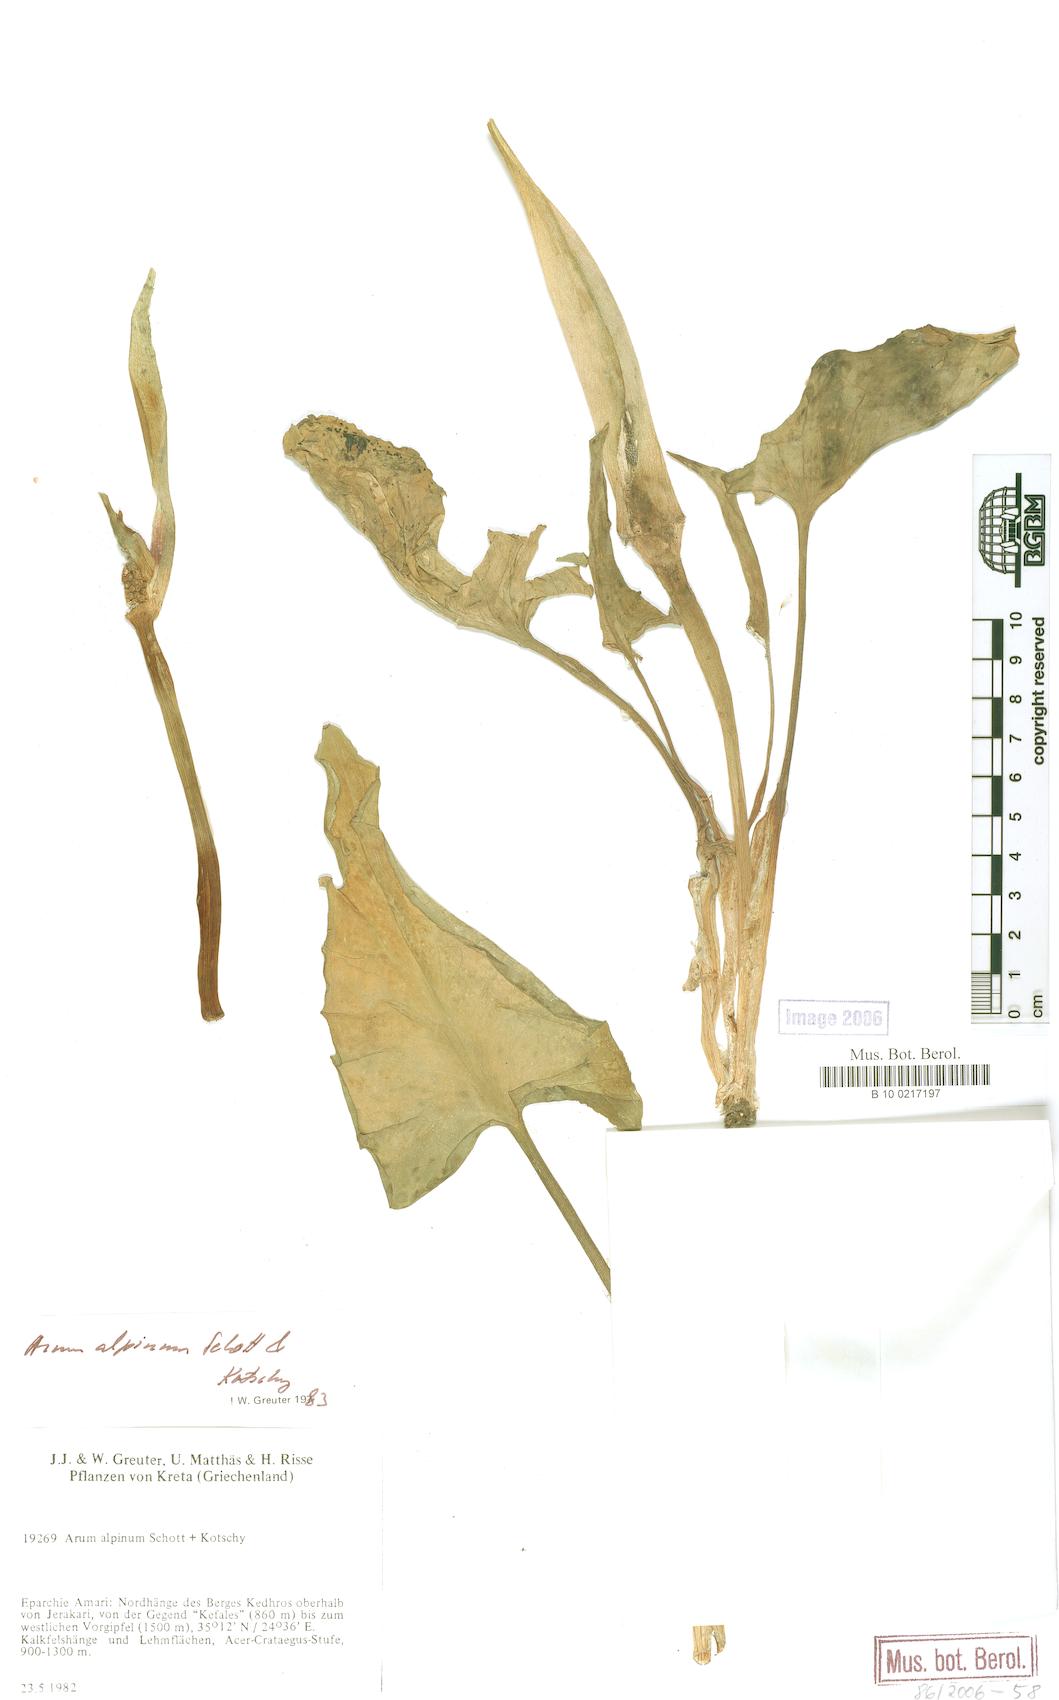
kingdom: Plantae
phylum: Tracheophyta
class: Liliopsida
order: Alismatales
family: Araceae
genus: Arum
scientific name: Arum cylindraceum
